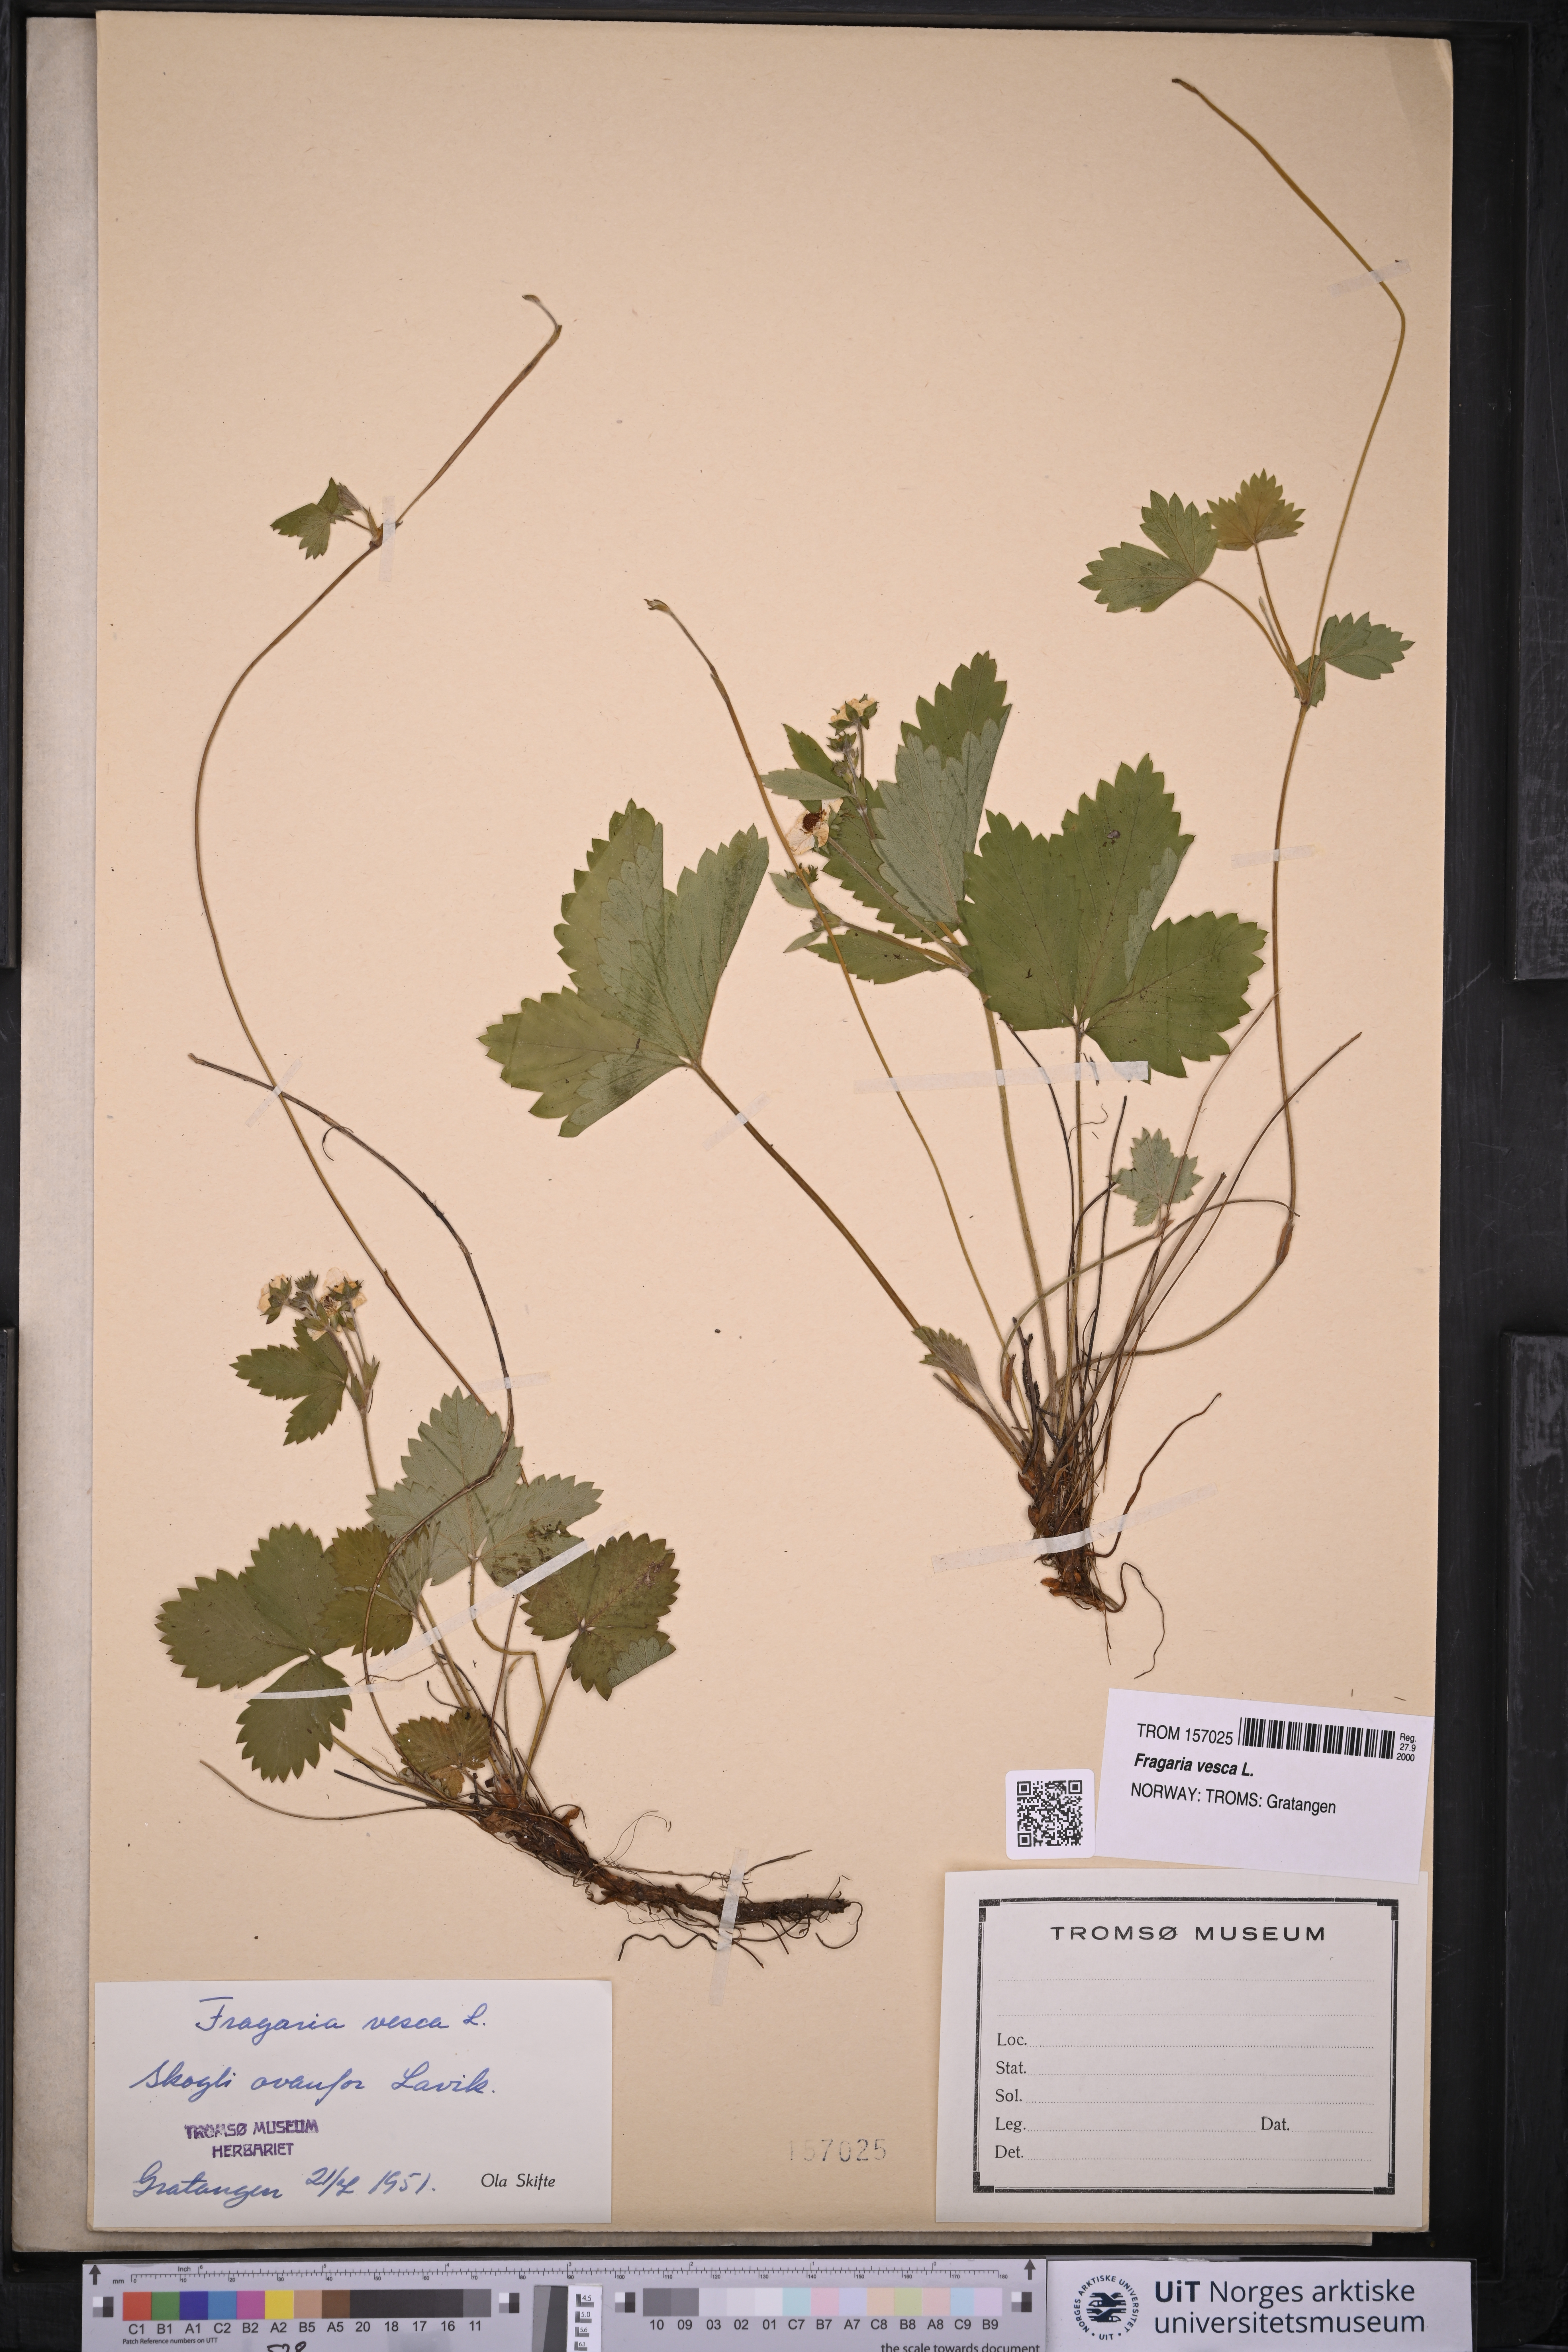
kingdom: Plantae
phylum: Tracheophyta
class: Magnoliopsida
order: Rosales
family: Rosaceae
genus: Fragaria
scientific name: Fragaria vesca
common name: Wild strawberry
